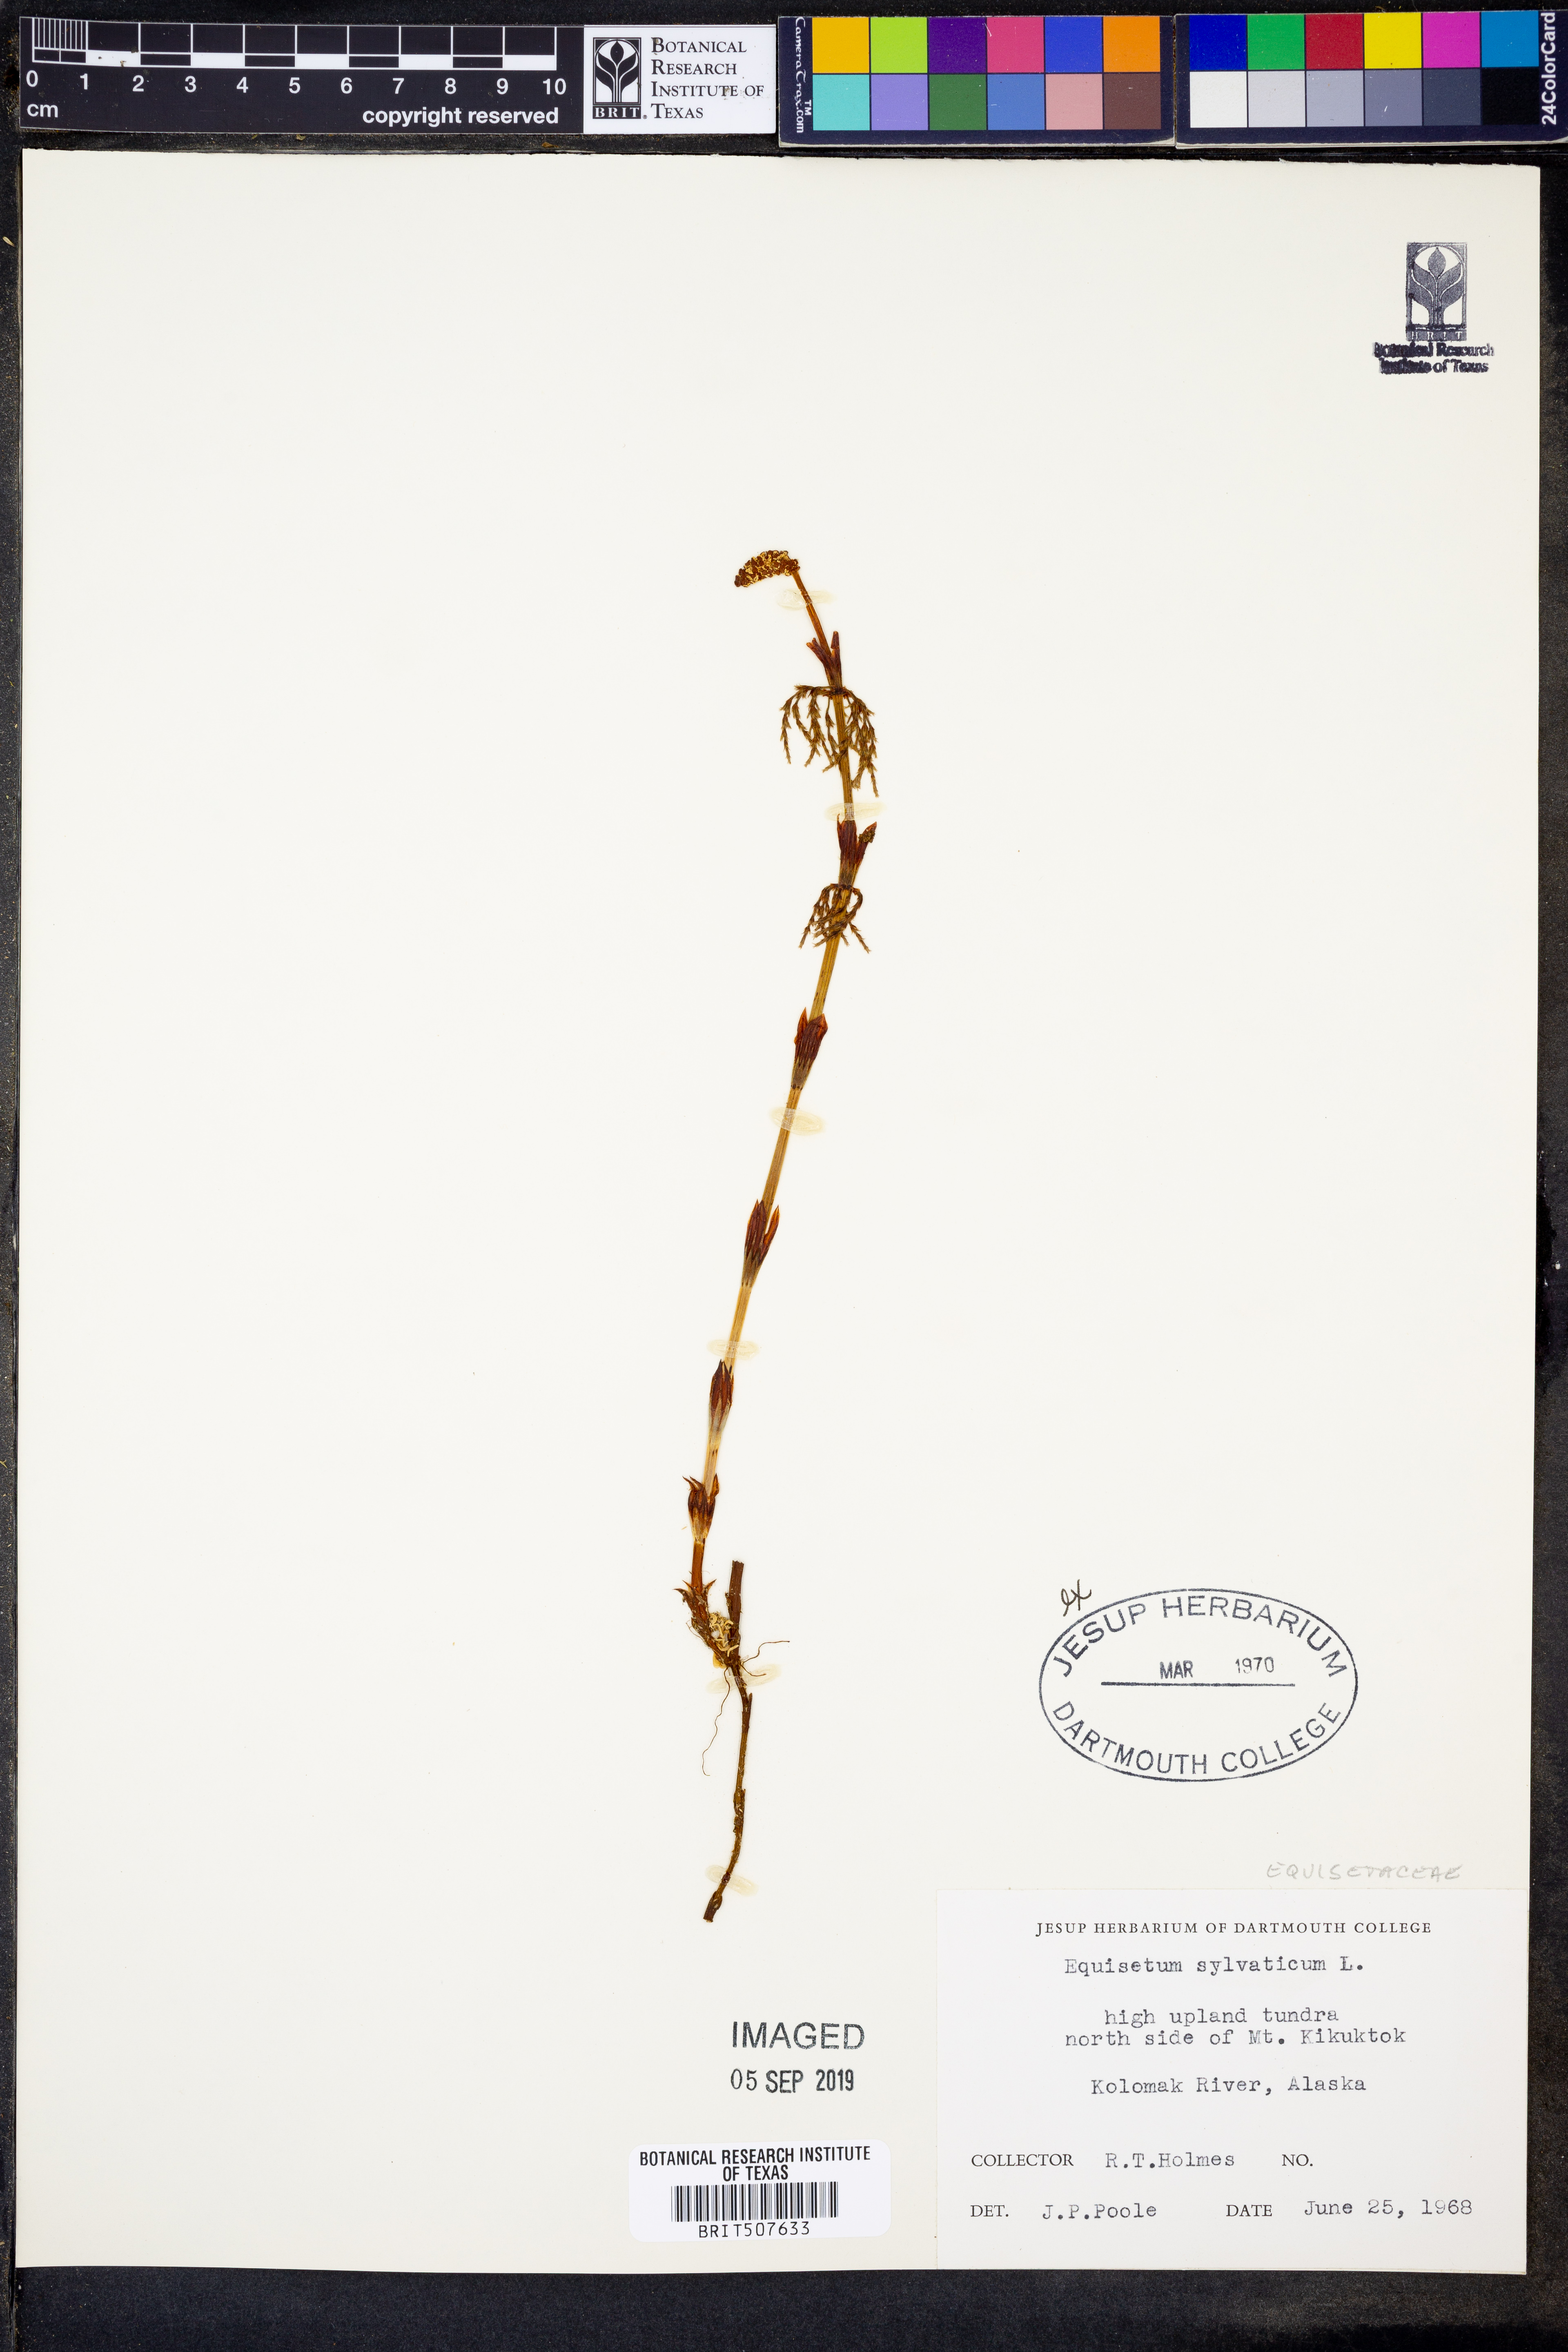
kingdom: Plantae
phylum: Tracheophyta
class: Polypodiopsida
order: Equisetales
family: Equisetaceae
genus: Equisetum
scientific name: Equisetum sylvaticum
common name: Wood horsetail
